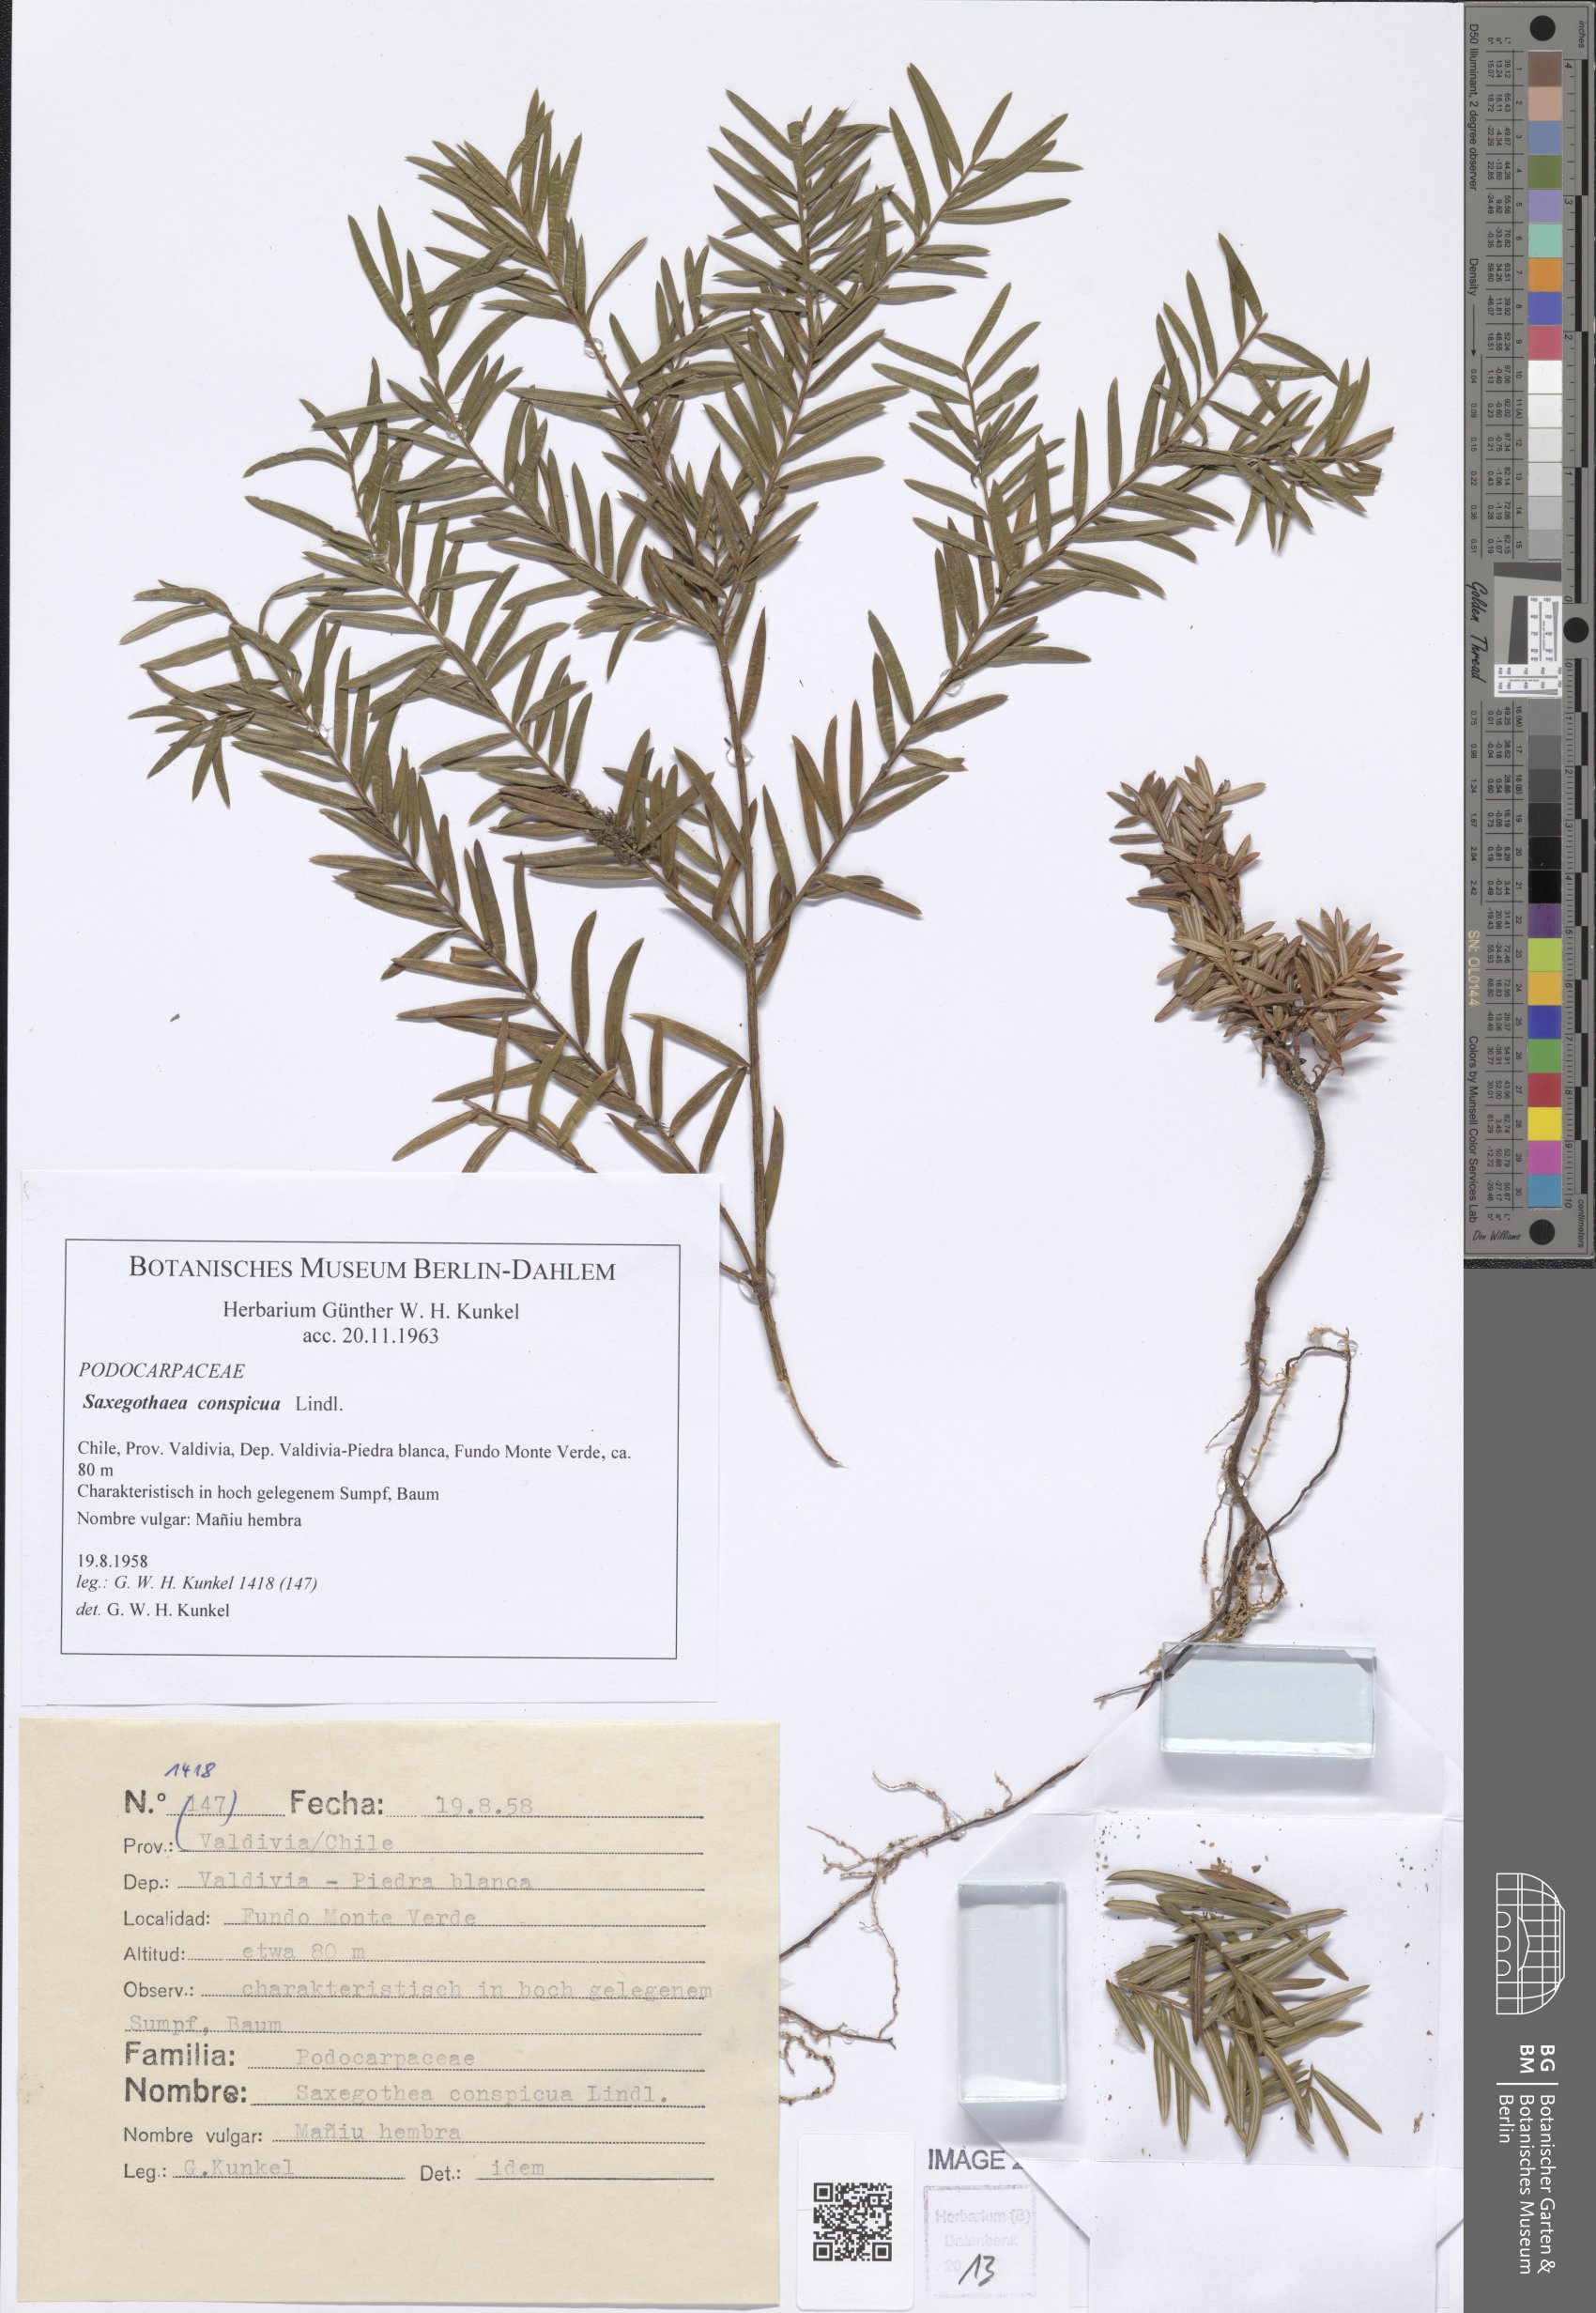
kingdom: Plantae
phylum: Tracheophyta
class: Pinopsida
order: Pinales
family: Podocarpaceae
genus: Saxegothaea
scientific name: Saxegothaea conspicua
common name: Prince albert's yew
